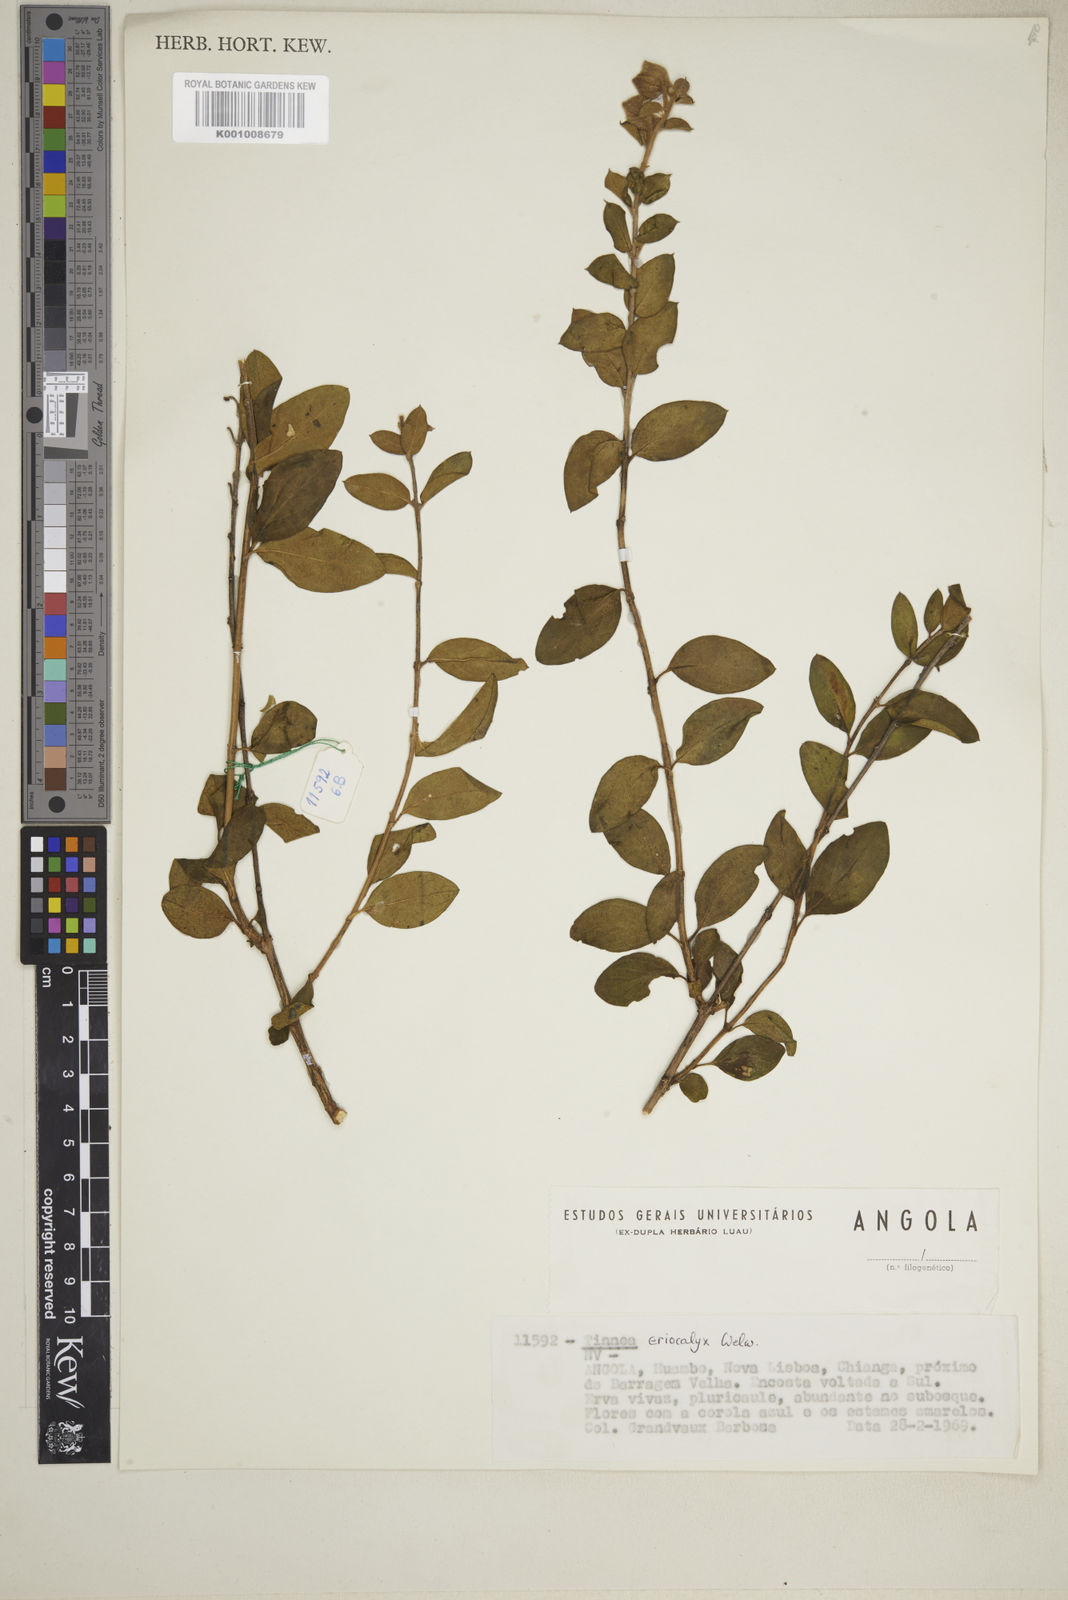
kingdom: Plantae
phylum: Tracheophyta
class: Magnoliopsida
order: Lamiales
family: Lamiaceae
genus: Tinnea
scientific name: Tinnea eriocalyx
